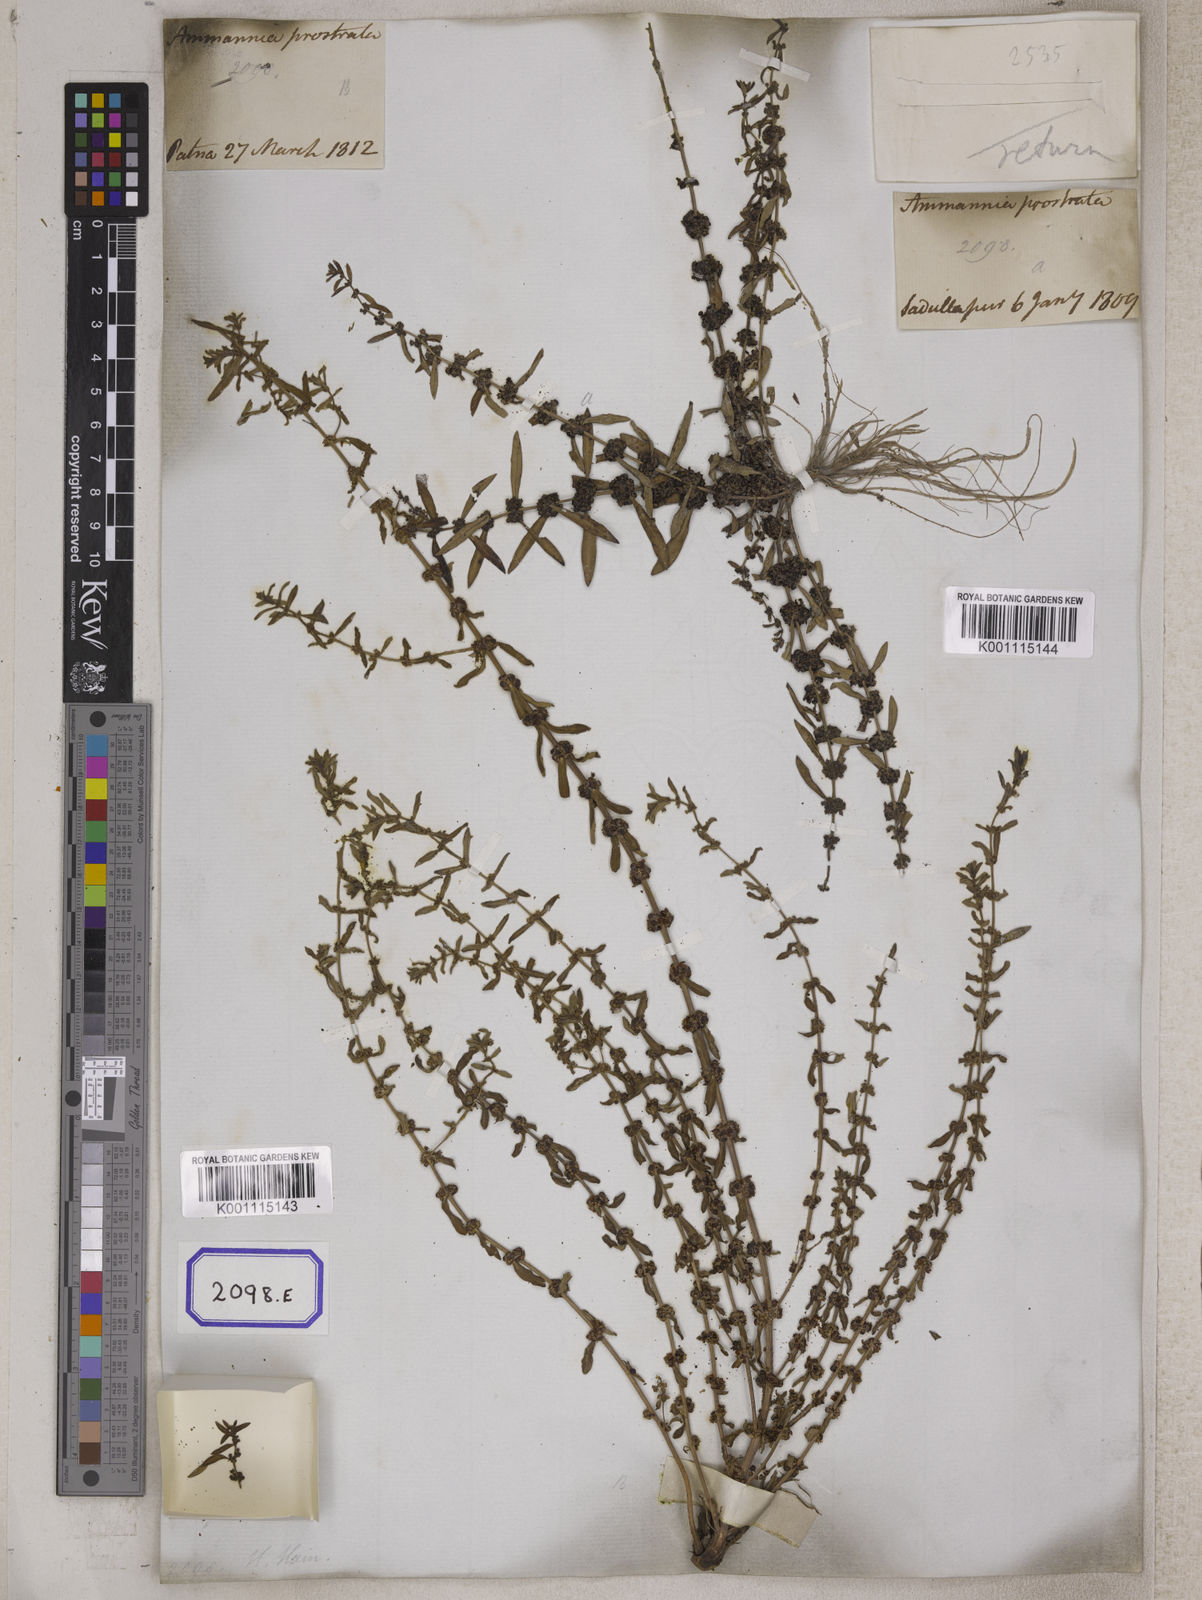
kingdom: Plantae
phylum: Tracheophyta
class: Magnoliopsida
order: Myrtales
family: Lythraceae
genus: Ammannia
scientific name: Ammannia baccifera
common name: Blistering ammania
